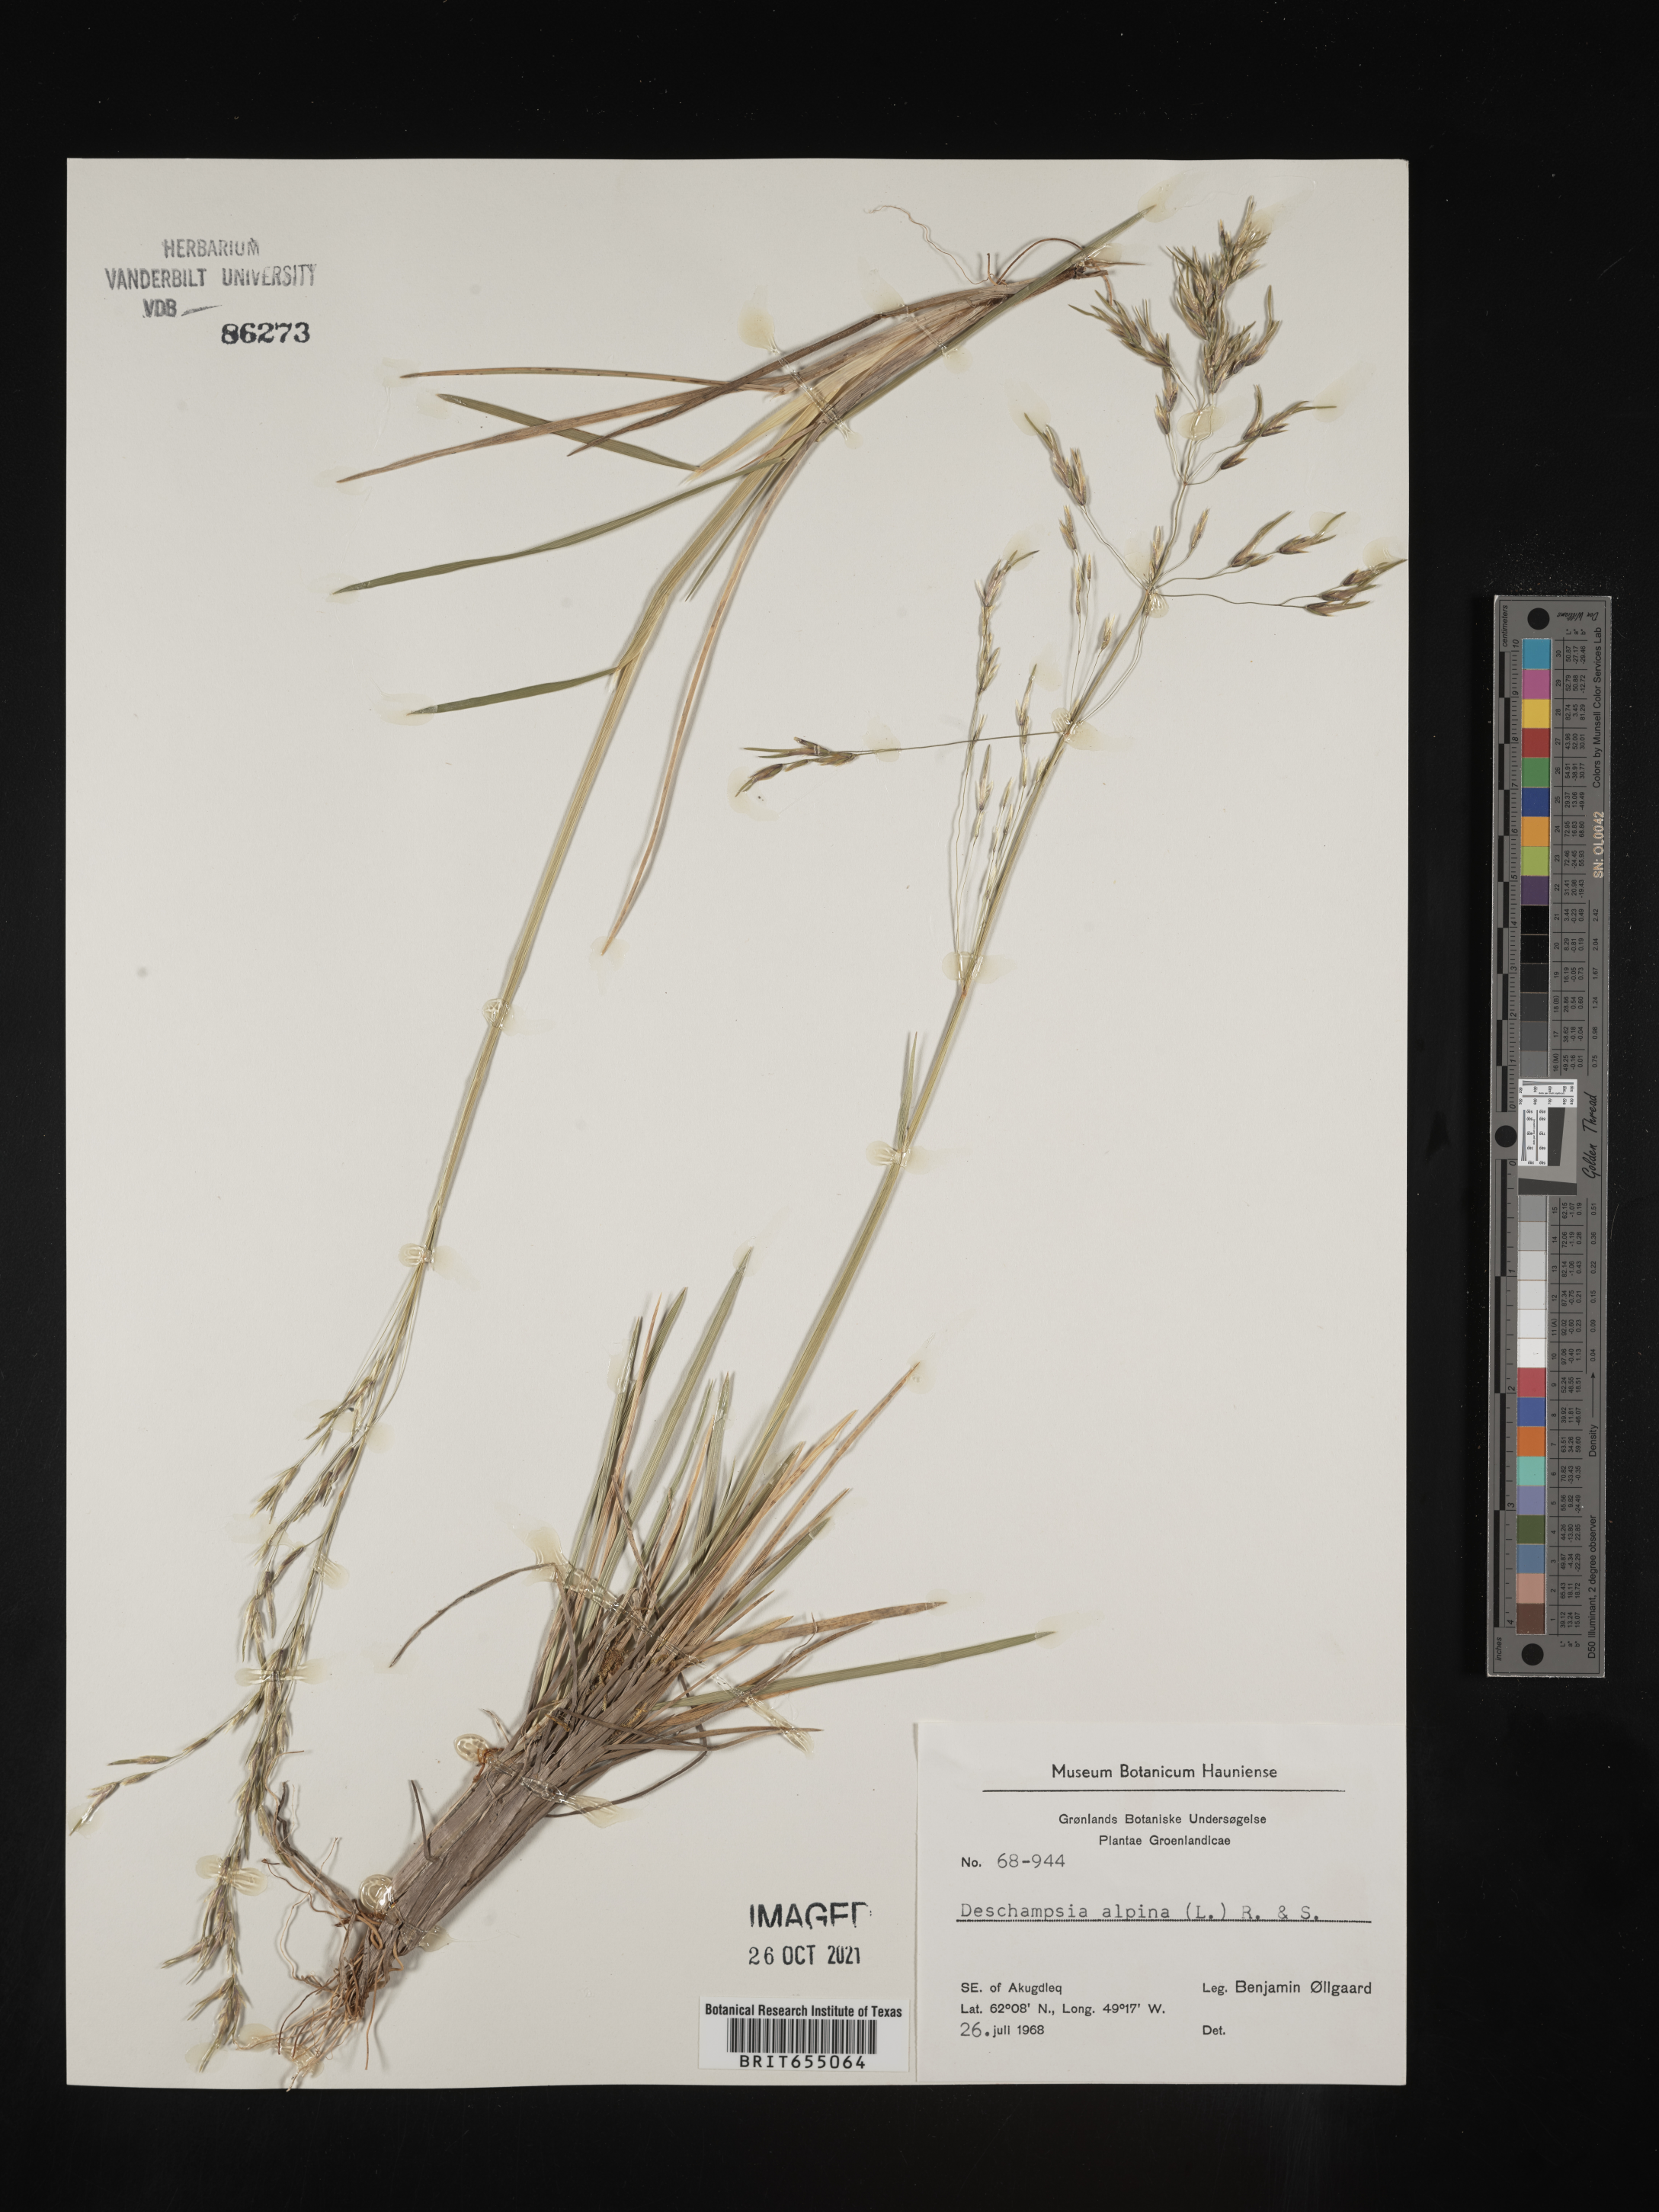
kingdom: Plantae
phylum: Tracheophyta
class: Liliopsida
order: Poales
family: Poaceae
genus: Deschampsia
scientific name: Deschampsia
